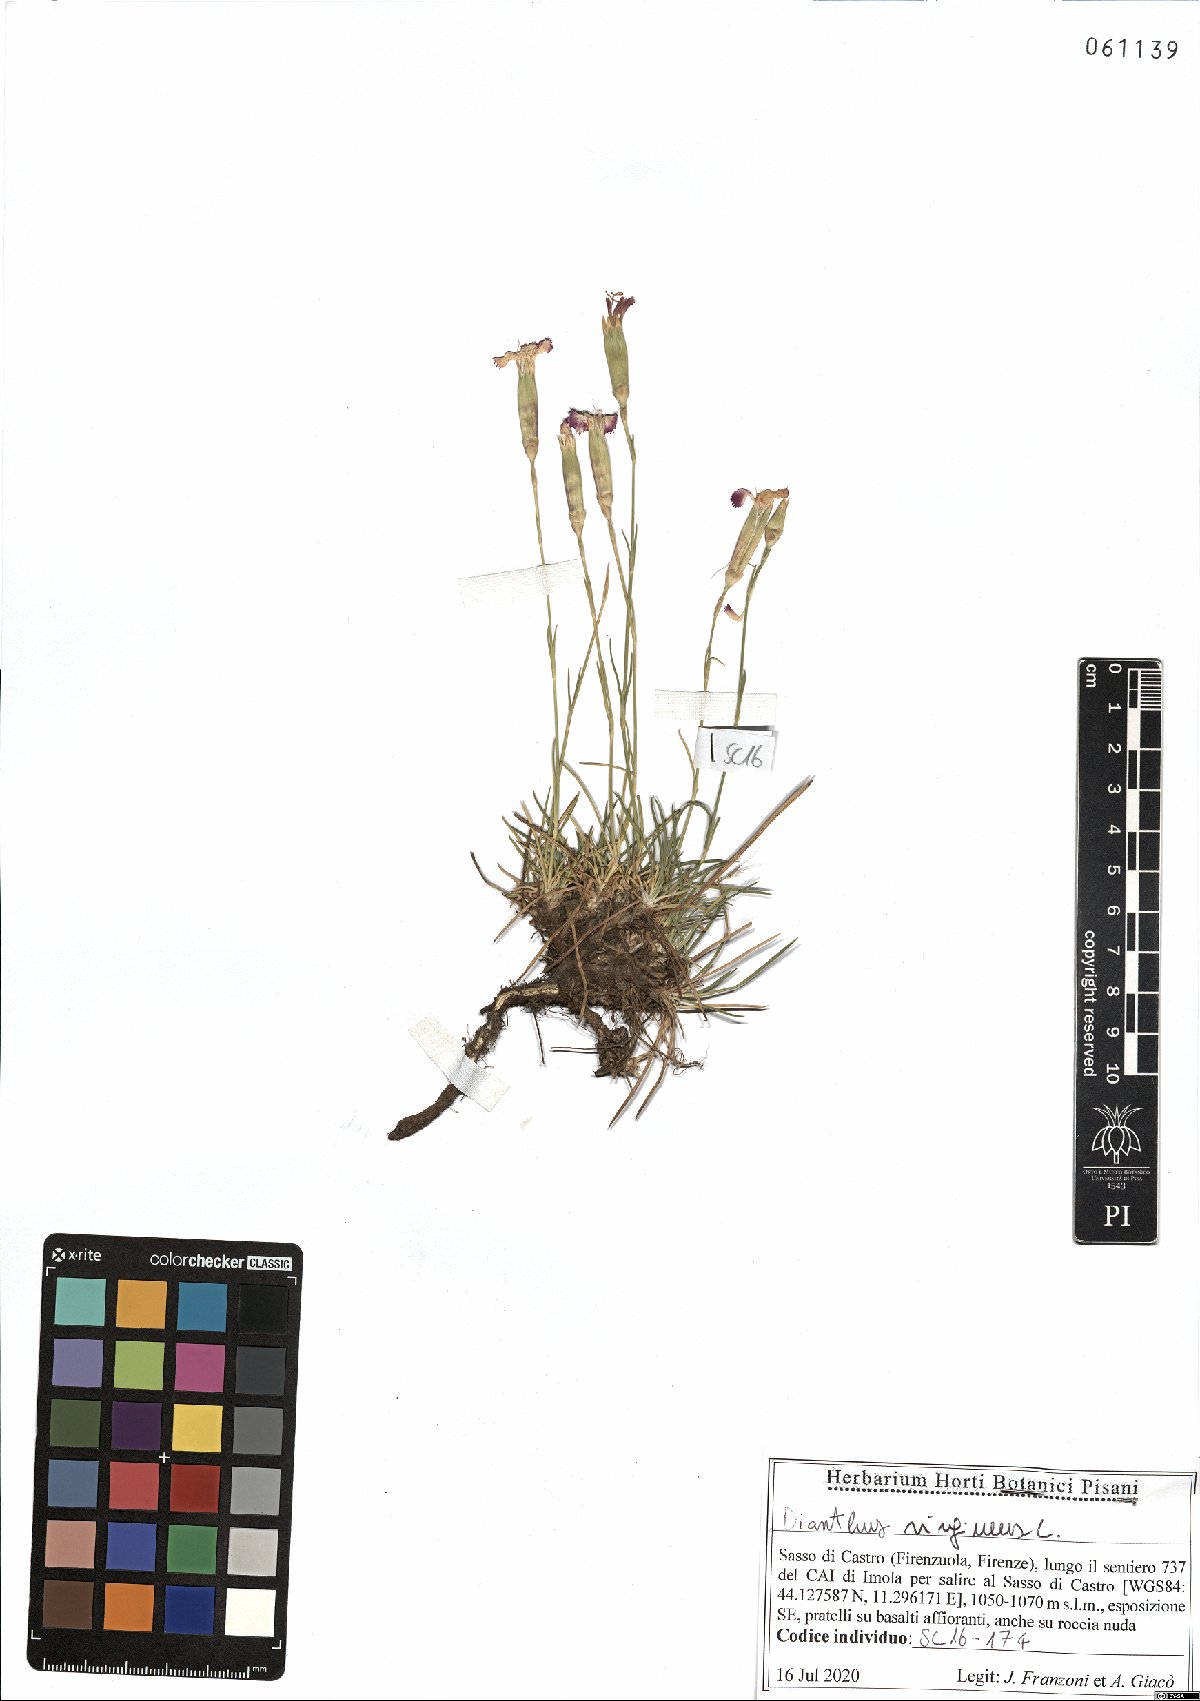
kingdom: Plantae
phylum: Tracheophyta
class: Magnoliopsida
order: Caryophyllales
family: Caryophyllaceae
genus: Dianthus
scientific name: Dianthus virgineus
